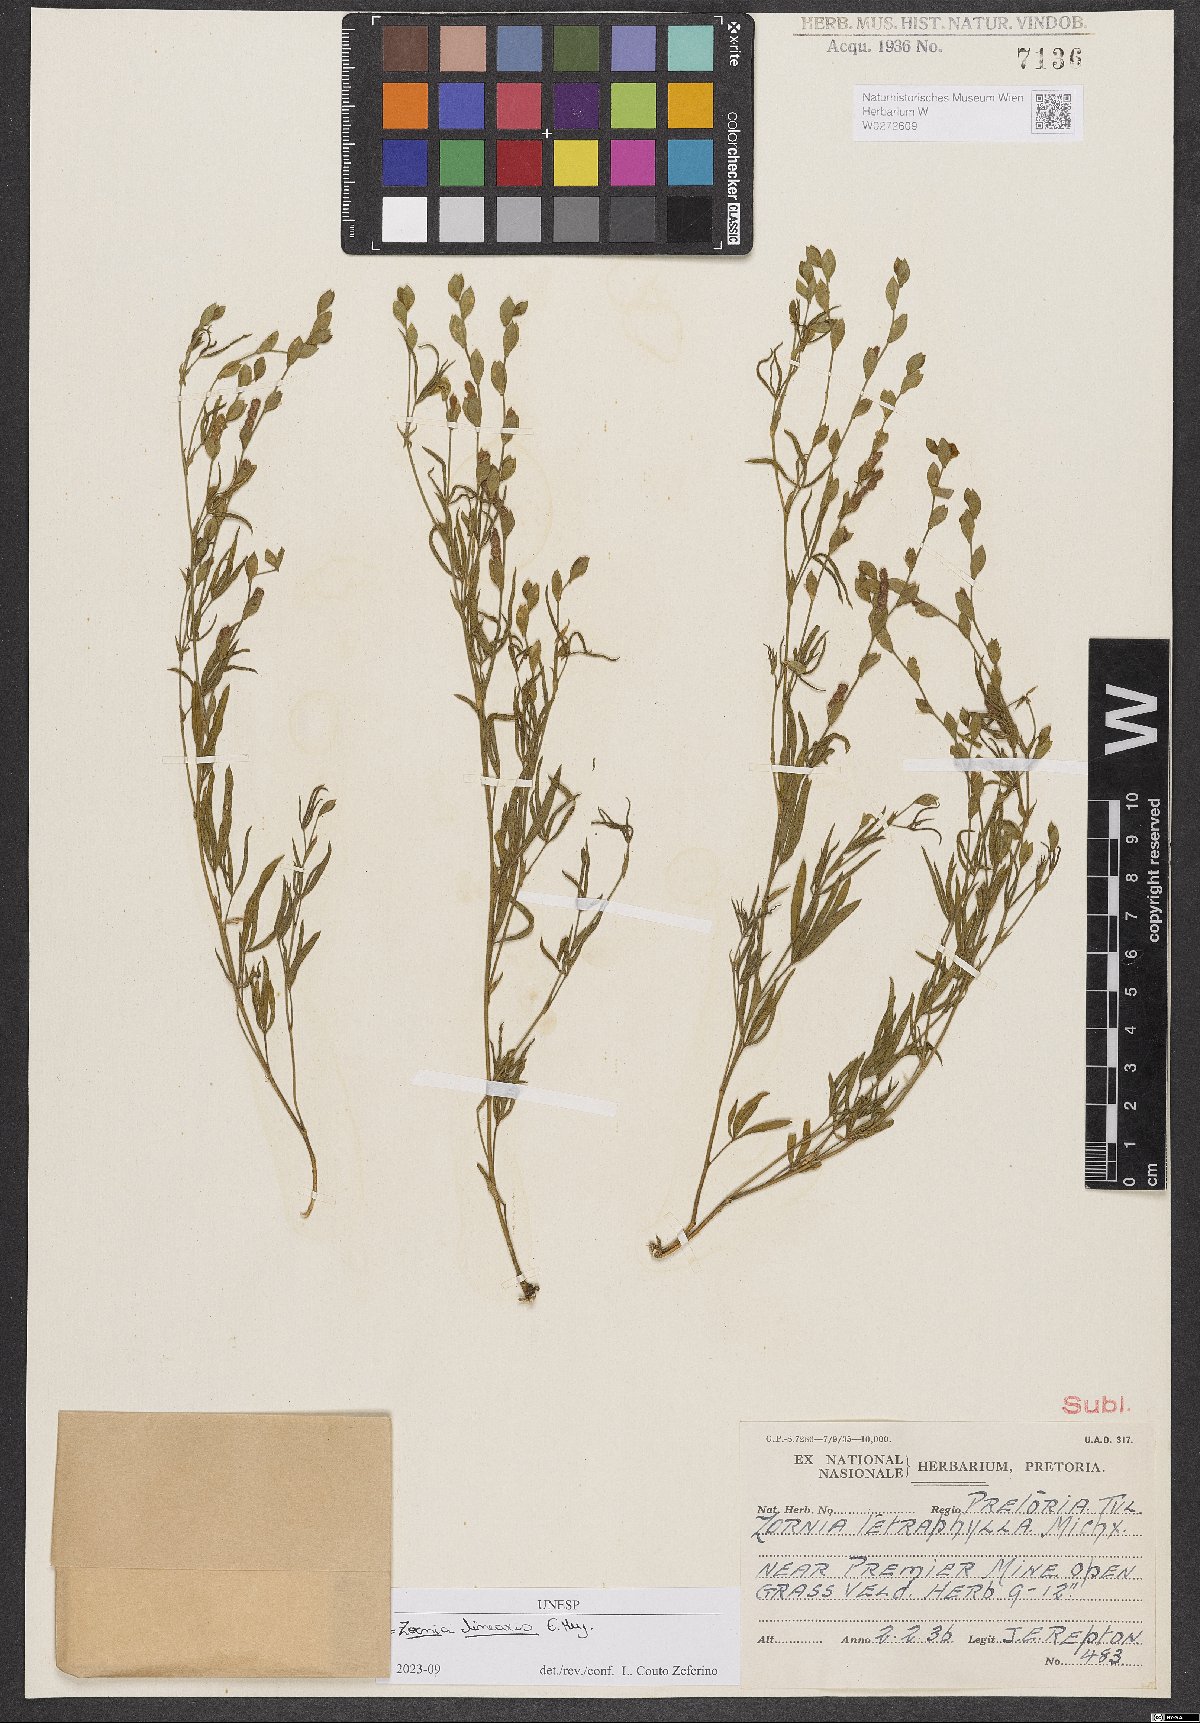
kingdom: Plantae
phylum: Tracheophyta
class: Magnoliopsida
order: Fabales
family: Fabaceae
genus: Zornia
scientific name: Zornia linearis
